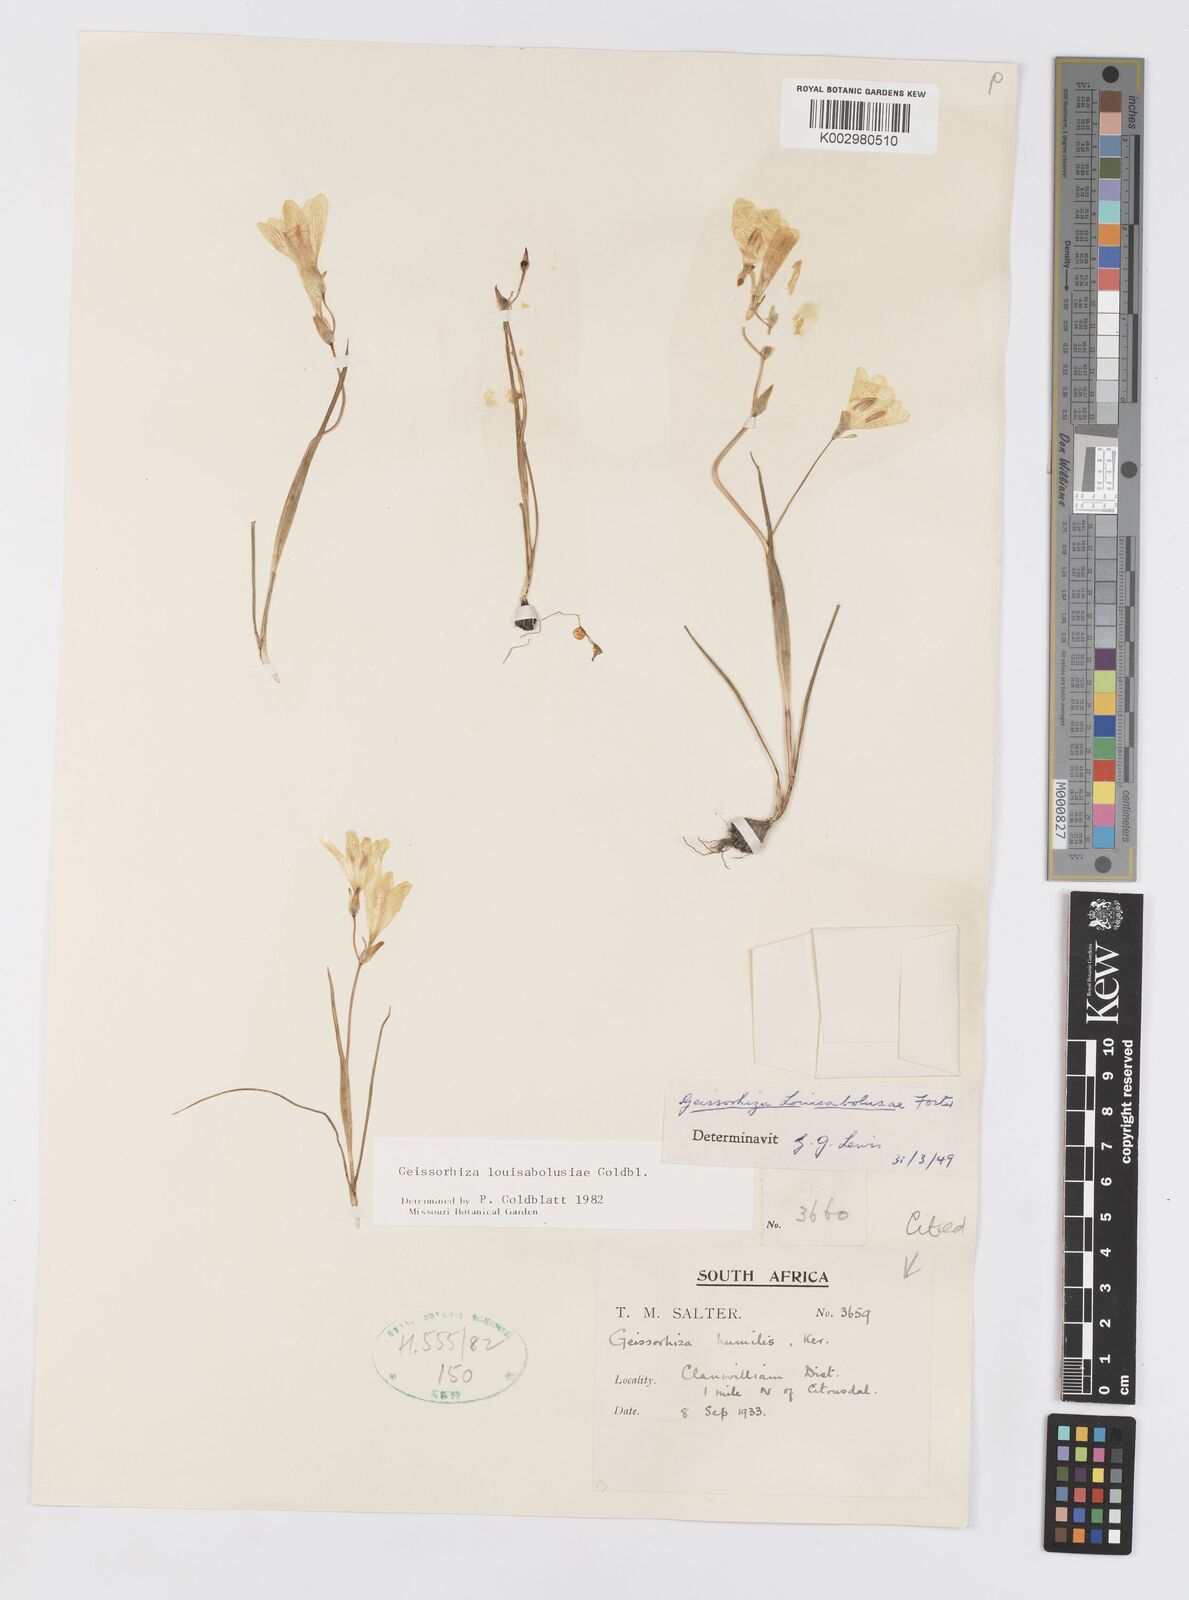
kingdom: Plantae
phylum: Tracheophyta
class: Liliopsida
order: Asparagales
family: Iridaceae
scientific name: Iridaceae
